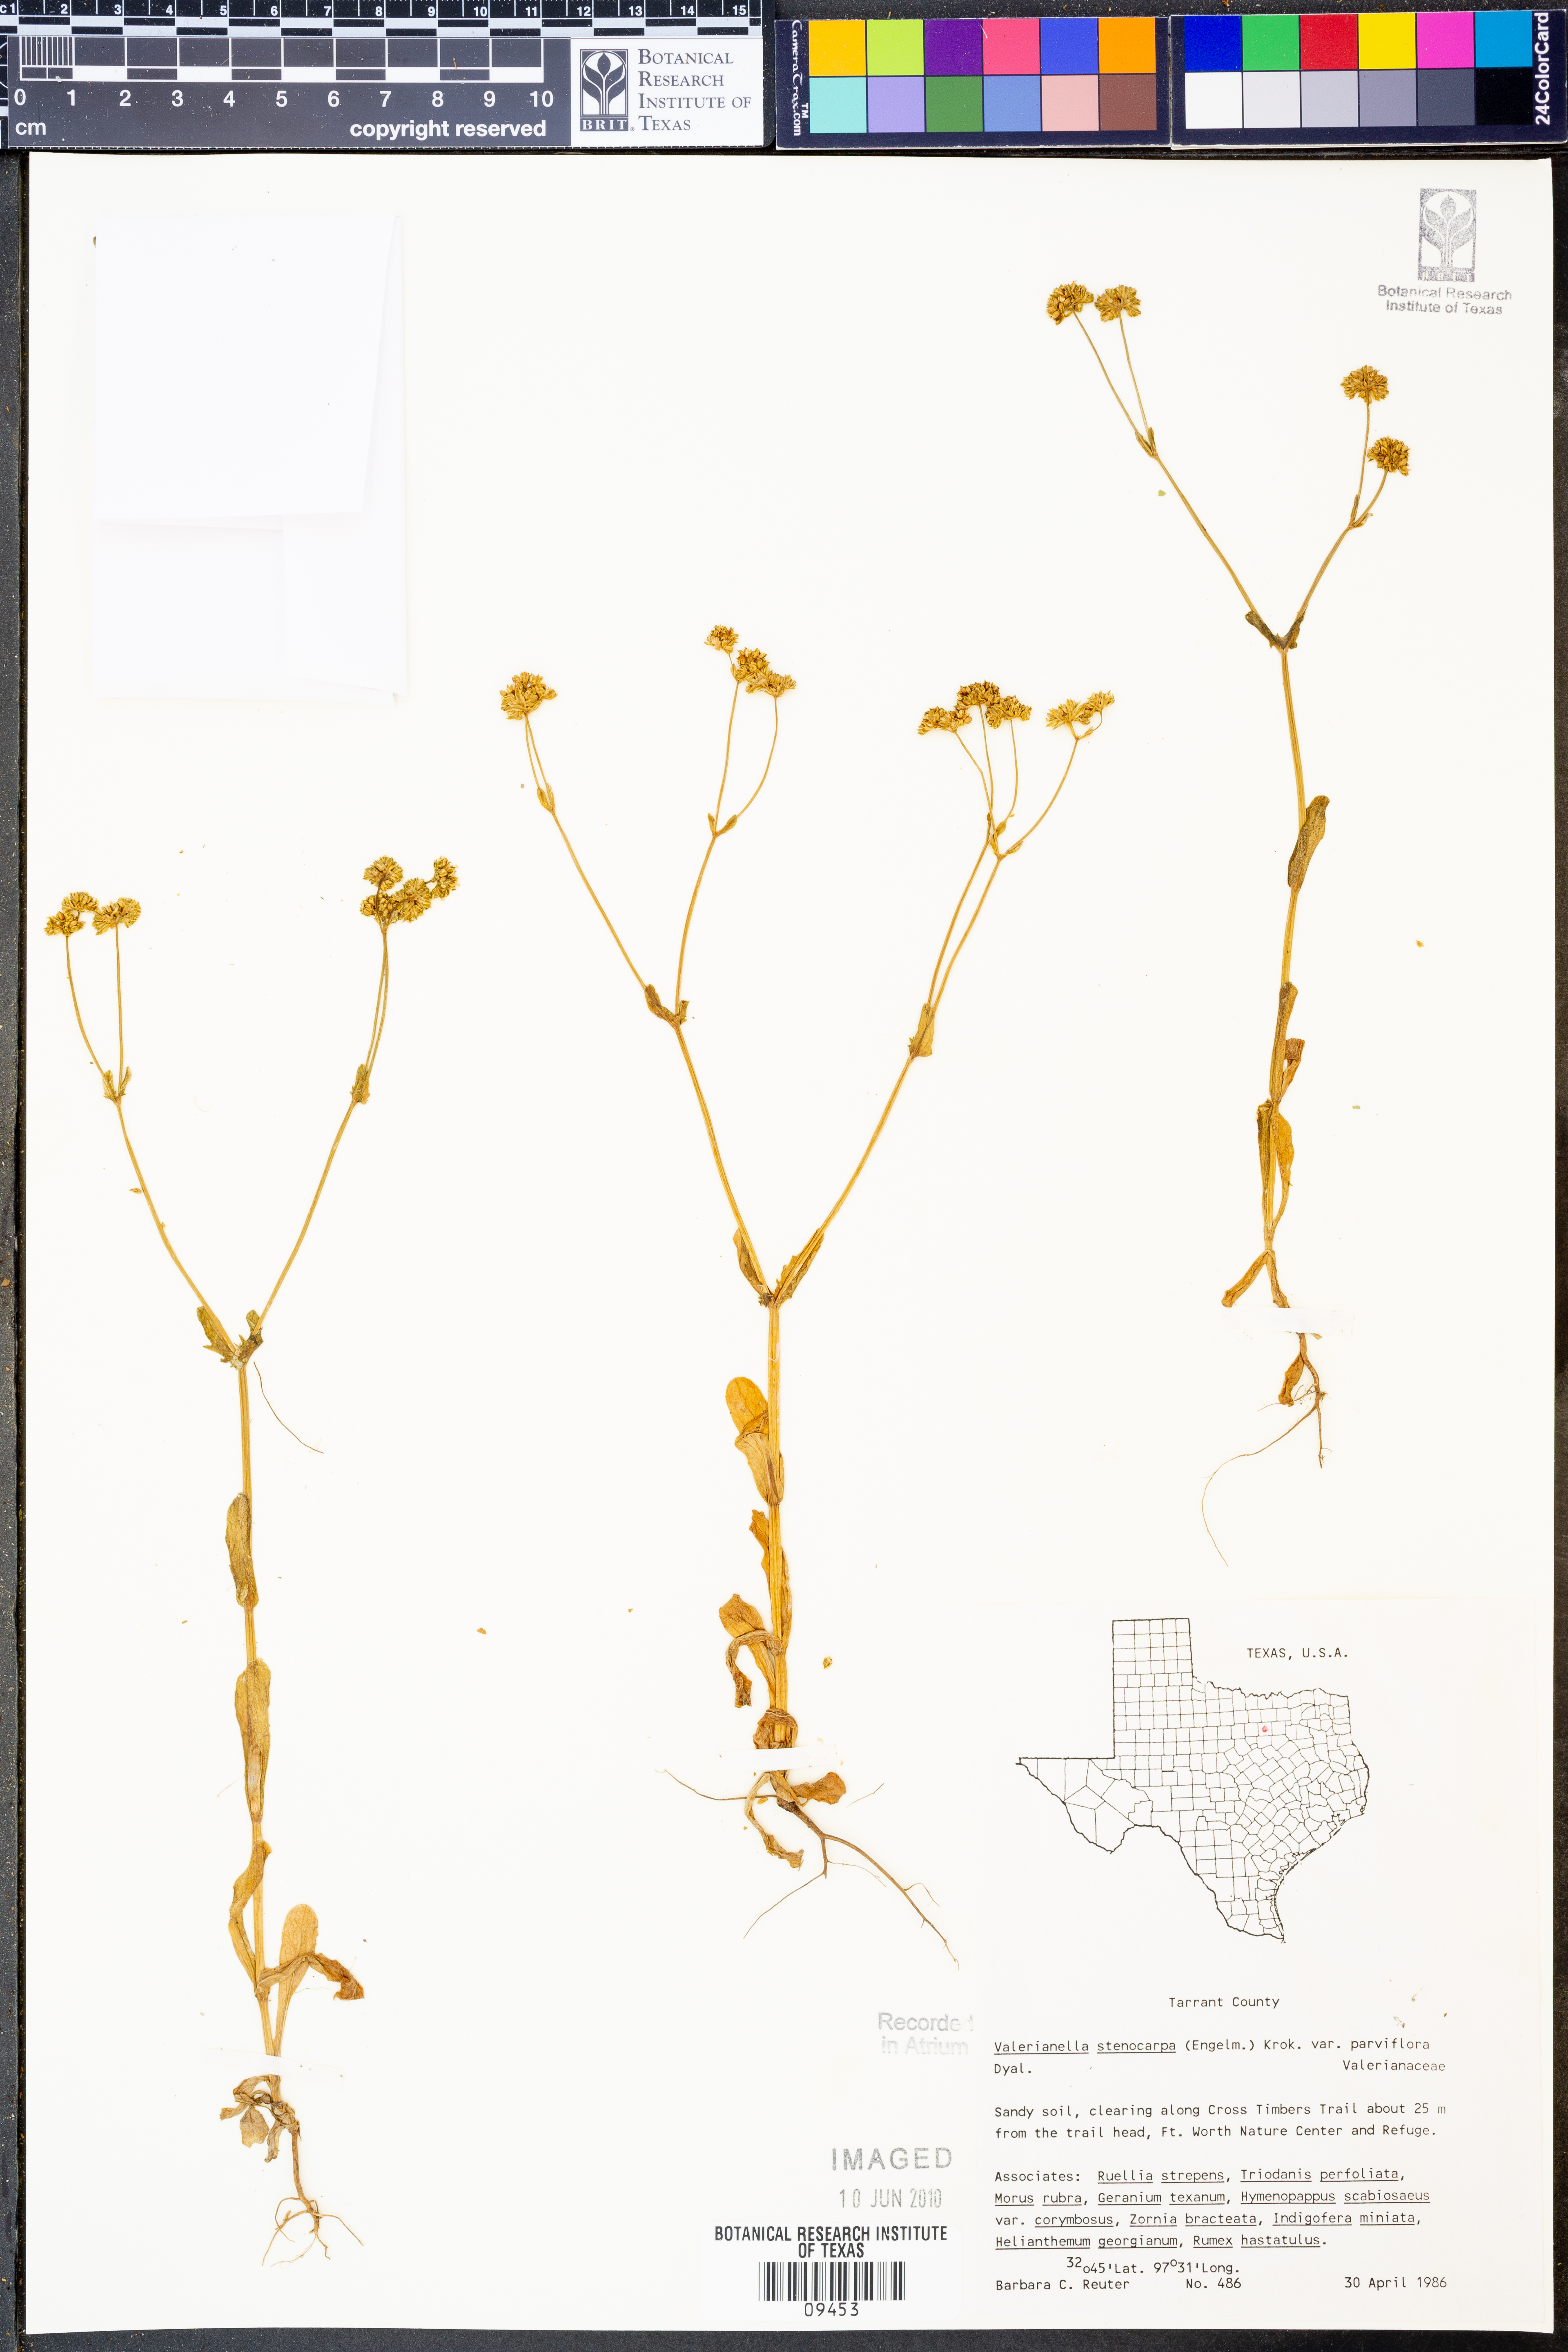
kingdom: Plantae
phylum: Tracheophyta
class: Magnoliopsida
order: Dipsacales
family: Caprifoliaceae
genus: Valerianella
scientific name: Valerianella radiata
